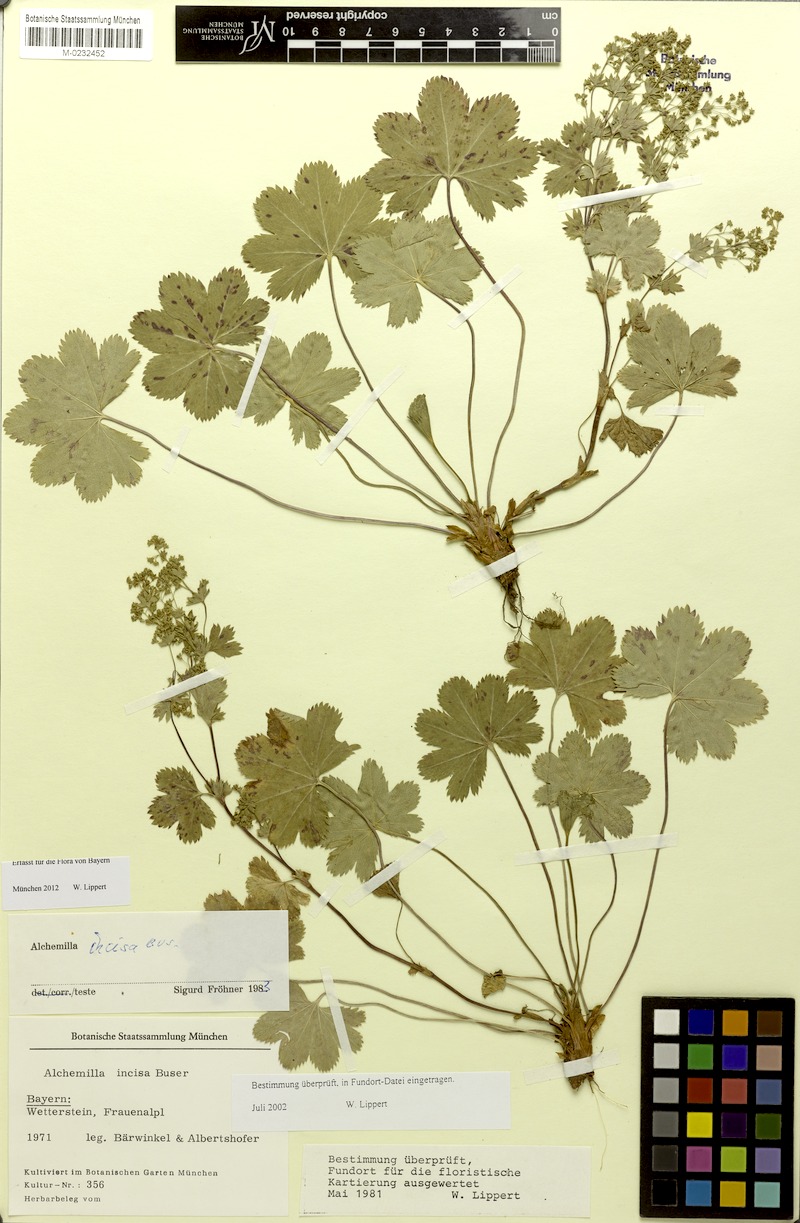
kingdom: Plantae
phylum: Tracheophyta
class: Magnoliopsida
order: Rosales
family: Rosaceae
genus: Alchemilla
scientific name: Alchemilla incisa
